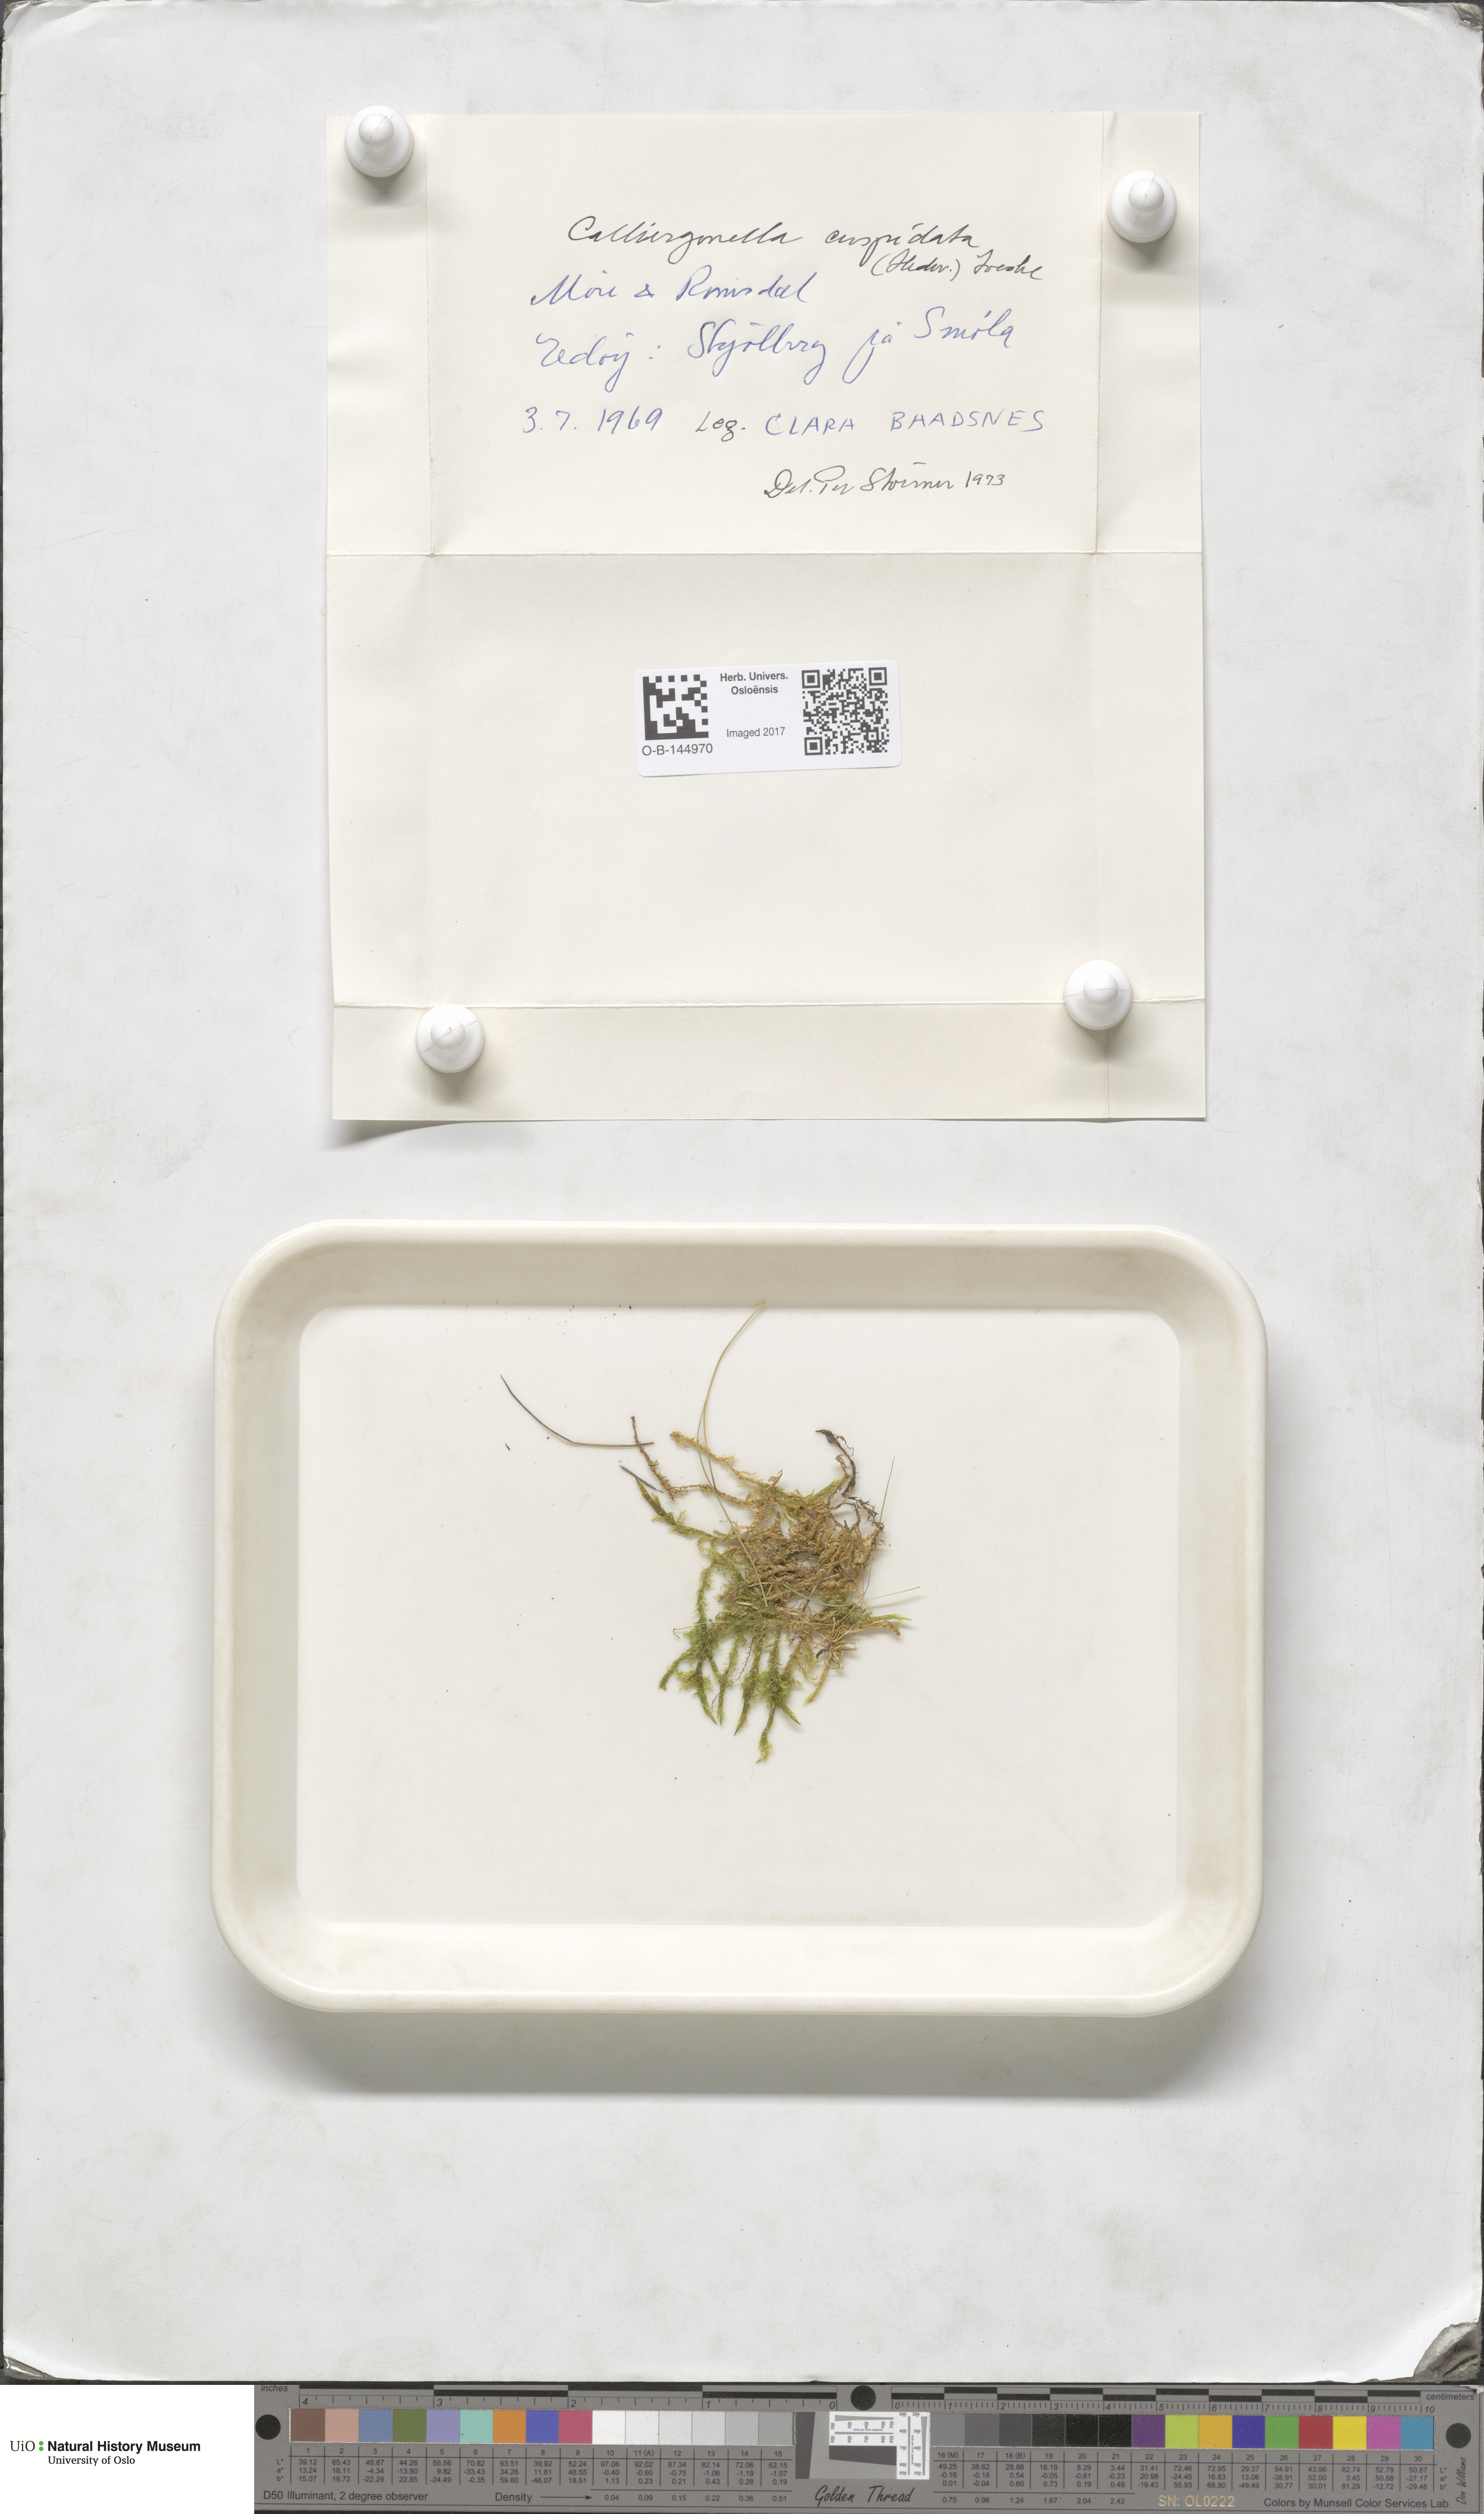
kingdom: Plantae
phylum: Bryophyta
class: Bryopsida
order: Hypnales
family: Pylaisiaceae
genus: Calliergonella
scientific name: Calliergonella cuspidata
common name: Common large wetland moss
